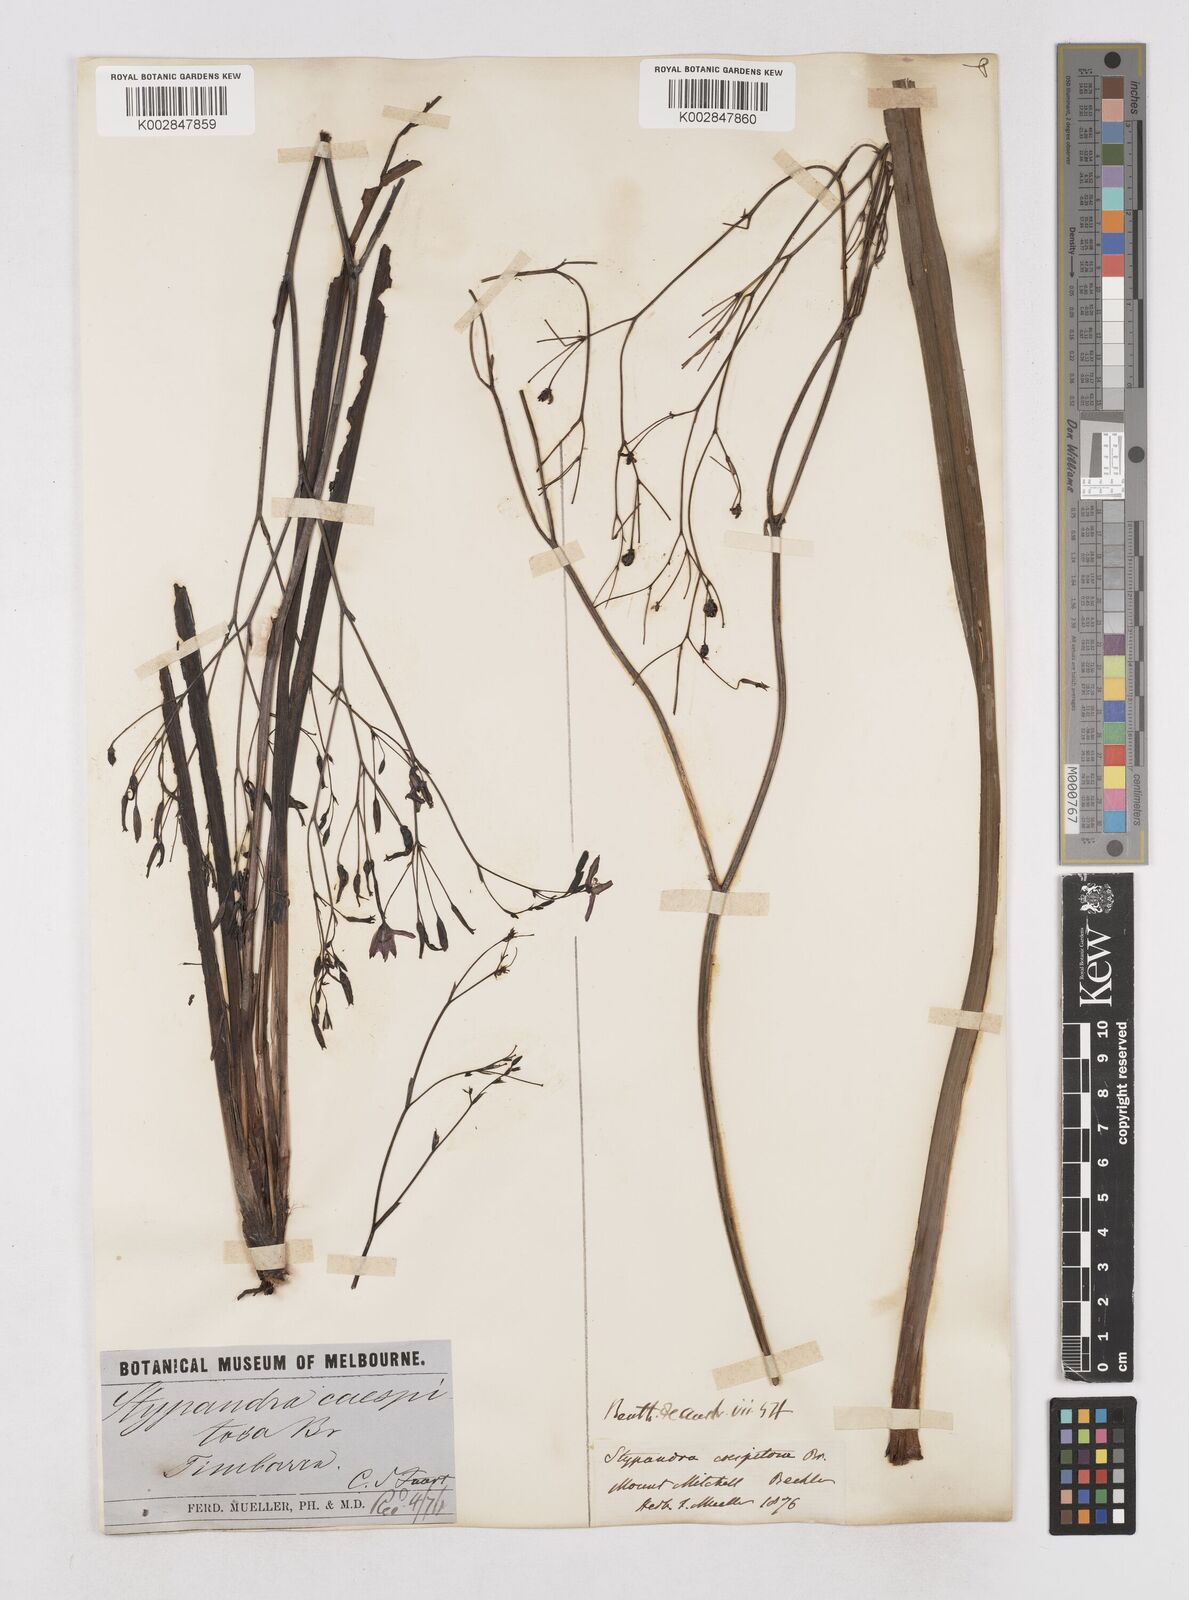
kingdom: Plantae
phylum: Tracheophyta
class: Liliopsida
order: Asparagales
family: Asphodelaceae
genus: Thelionema
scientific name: Thelionema caespitosum
